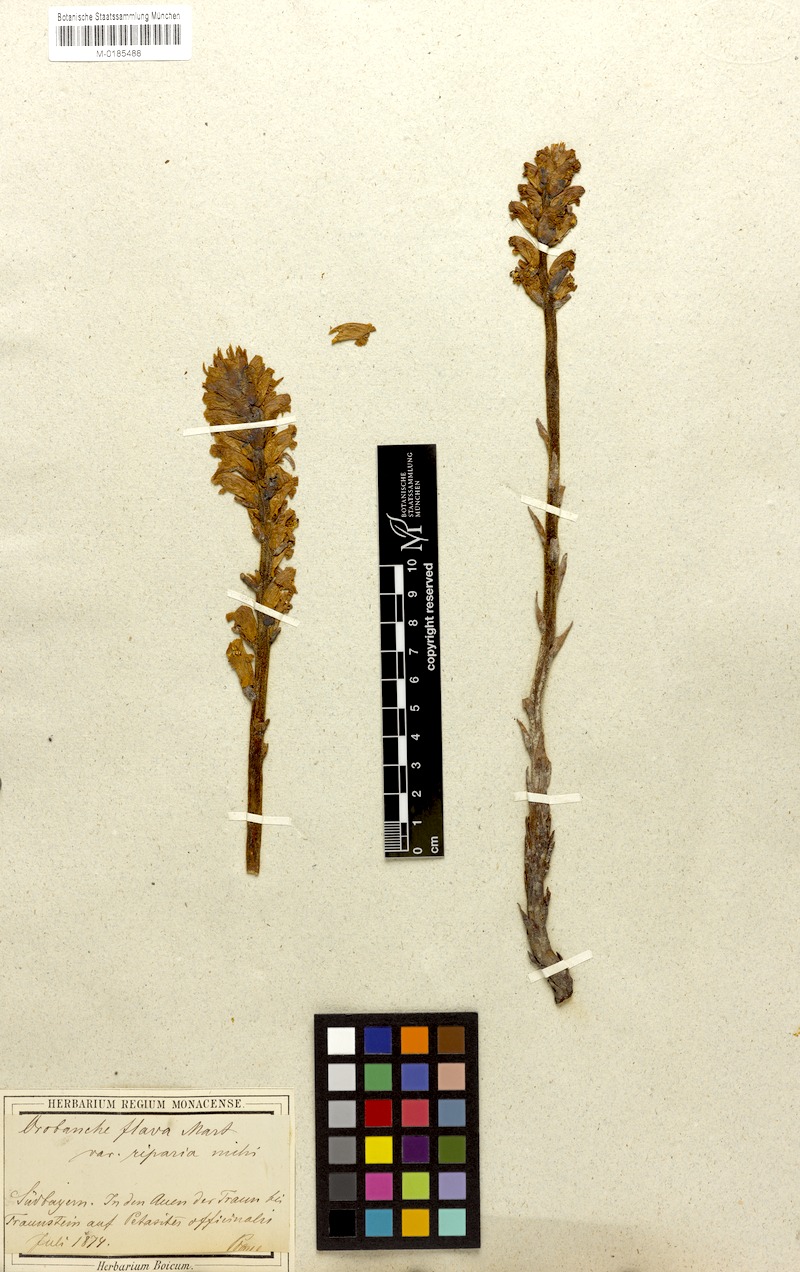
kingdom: Plantae
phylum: Tracheophyta
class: Magnoliopsida
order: Lamiales
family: Orobanchaceae
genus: Orobanche
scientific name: Orobanche flava
